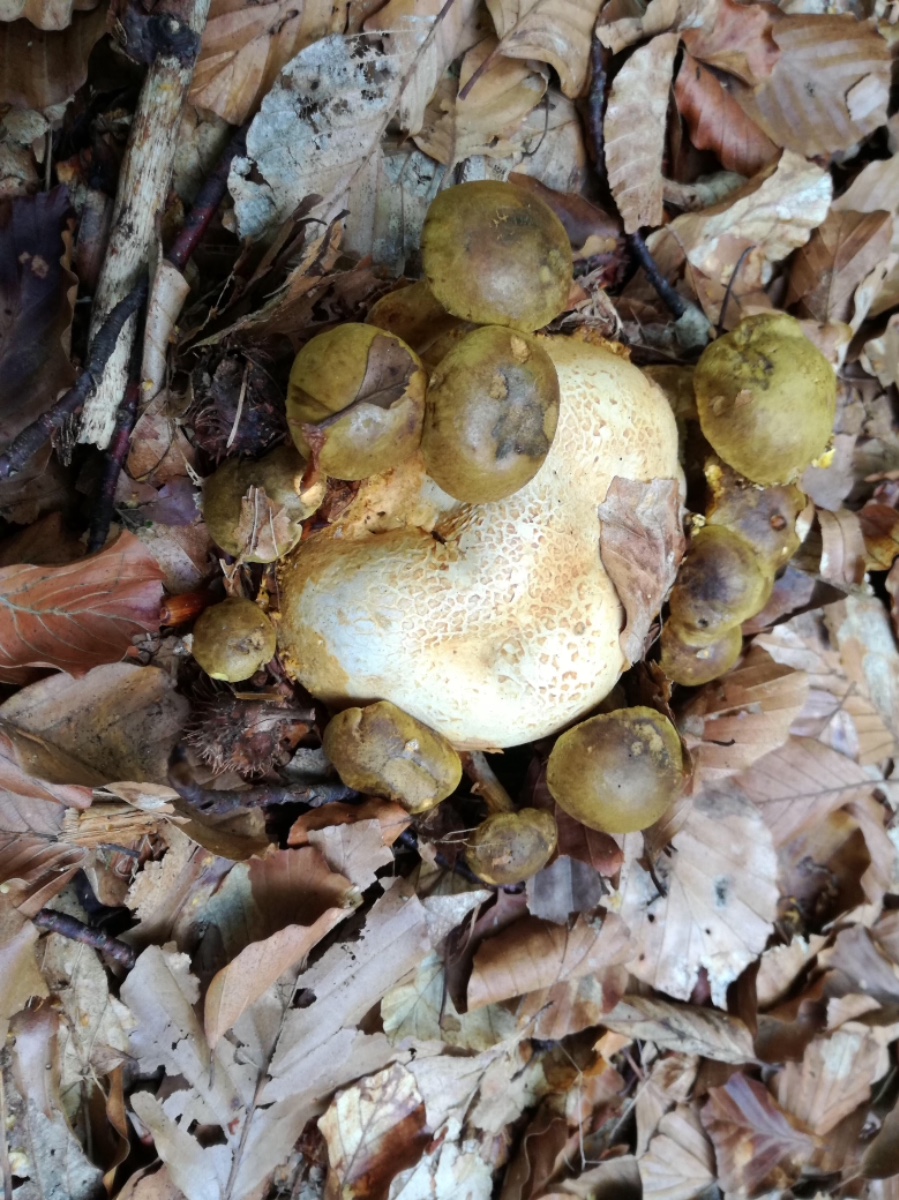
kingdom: Fungi
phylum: Basidiomycota
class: Agaricomycetes
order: Boletales
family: Boletaceae
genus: Pseudoboletus
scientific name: Pseudoboletus parasiticus
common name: snyltende rørhat
